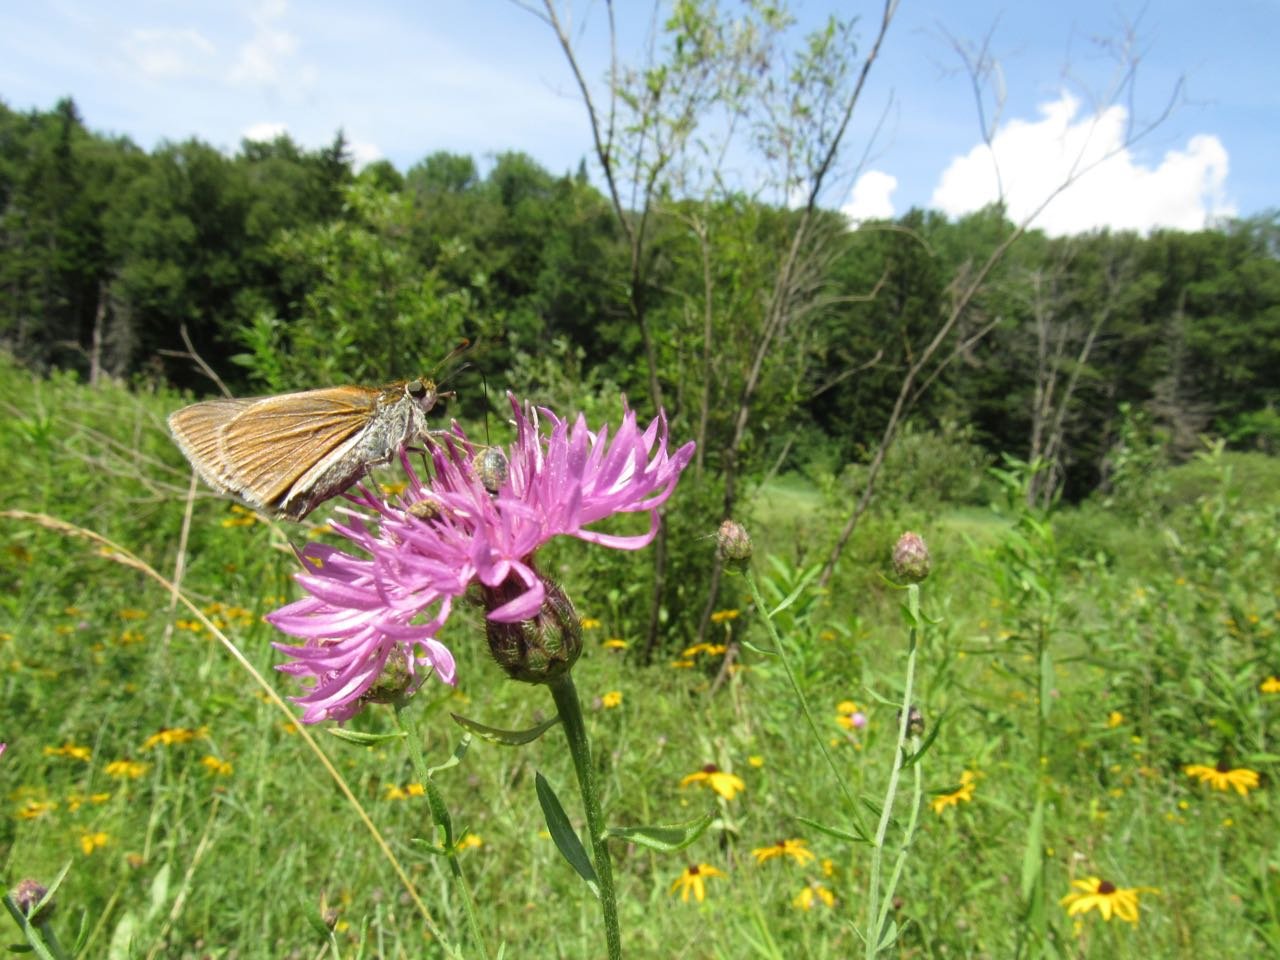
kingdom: Animalia
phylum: Arthropoda
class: Insecta
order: Lepidoptera
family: Hesperiidae
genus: Euphyes
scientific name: Euphyes bimacula
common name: Two-spotted Skipper
